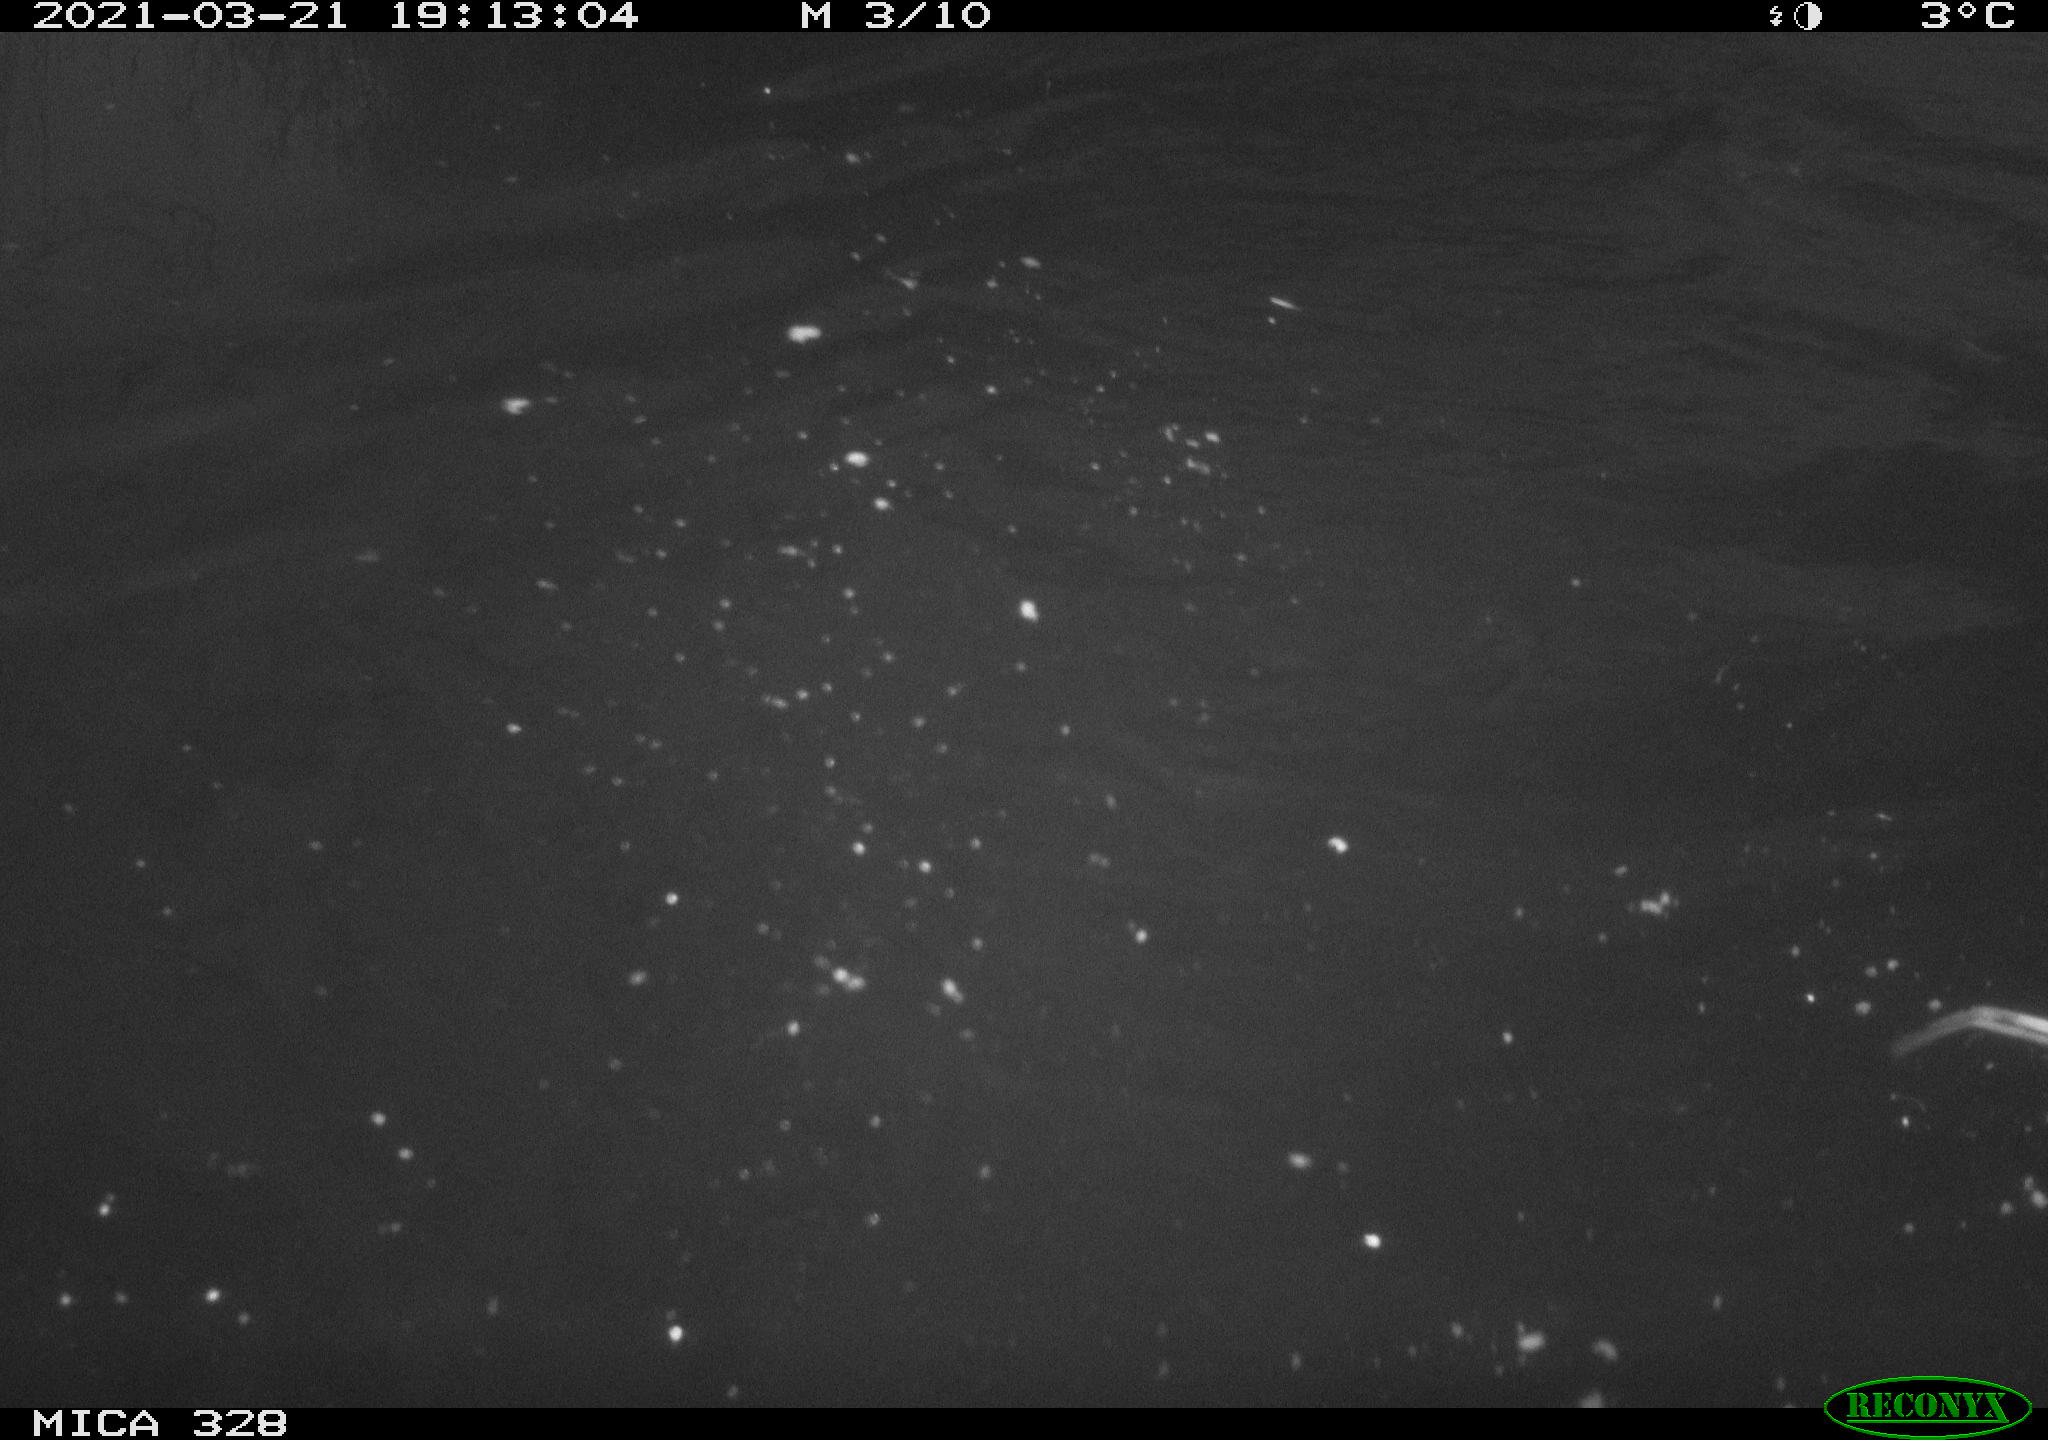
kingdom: Animalia
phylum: Chordata
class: Mammalia
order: Rodentia
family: Cricetidae
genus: Ondatra
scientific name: Ondatra zibethicus
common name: Muskrat
